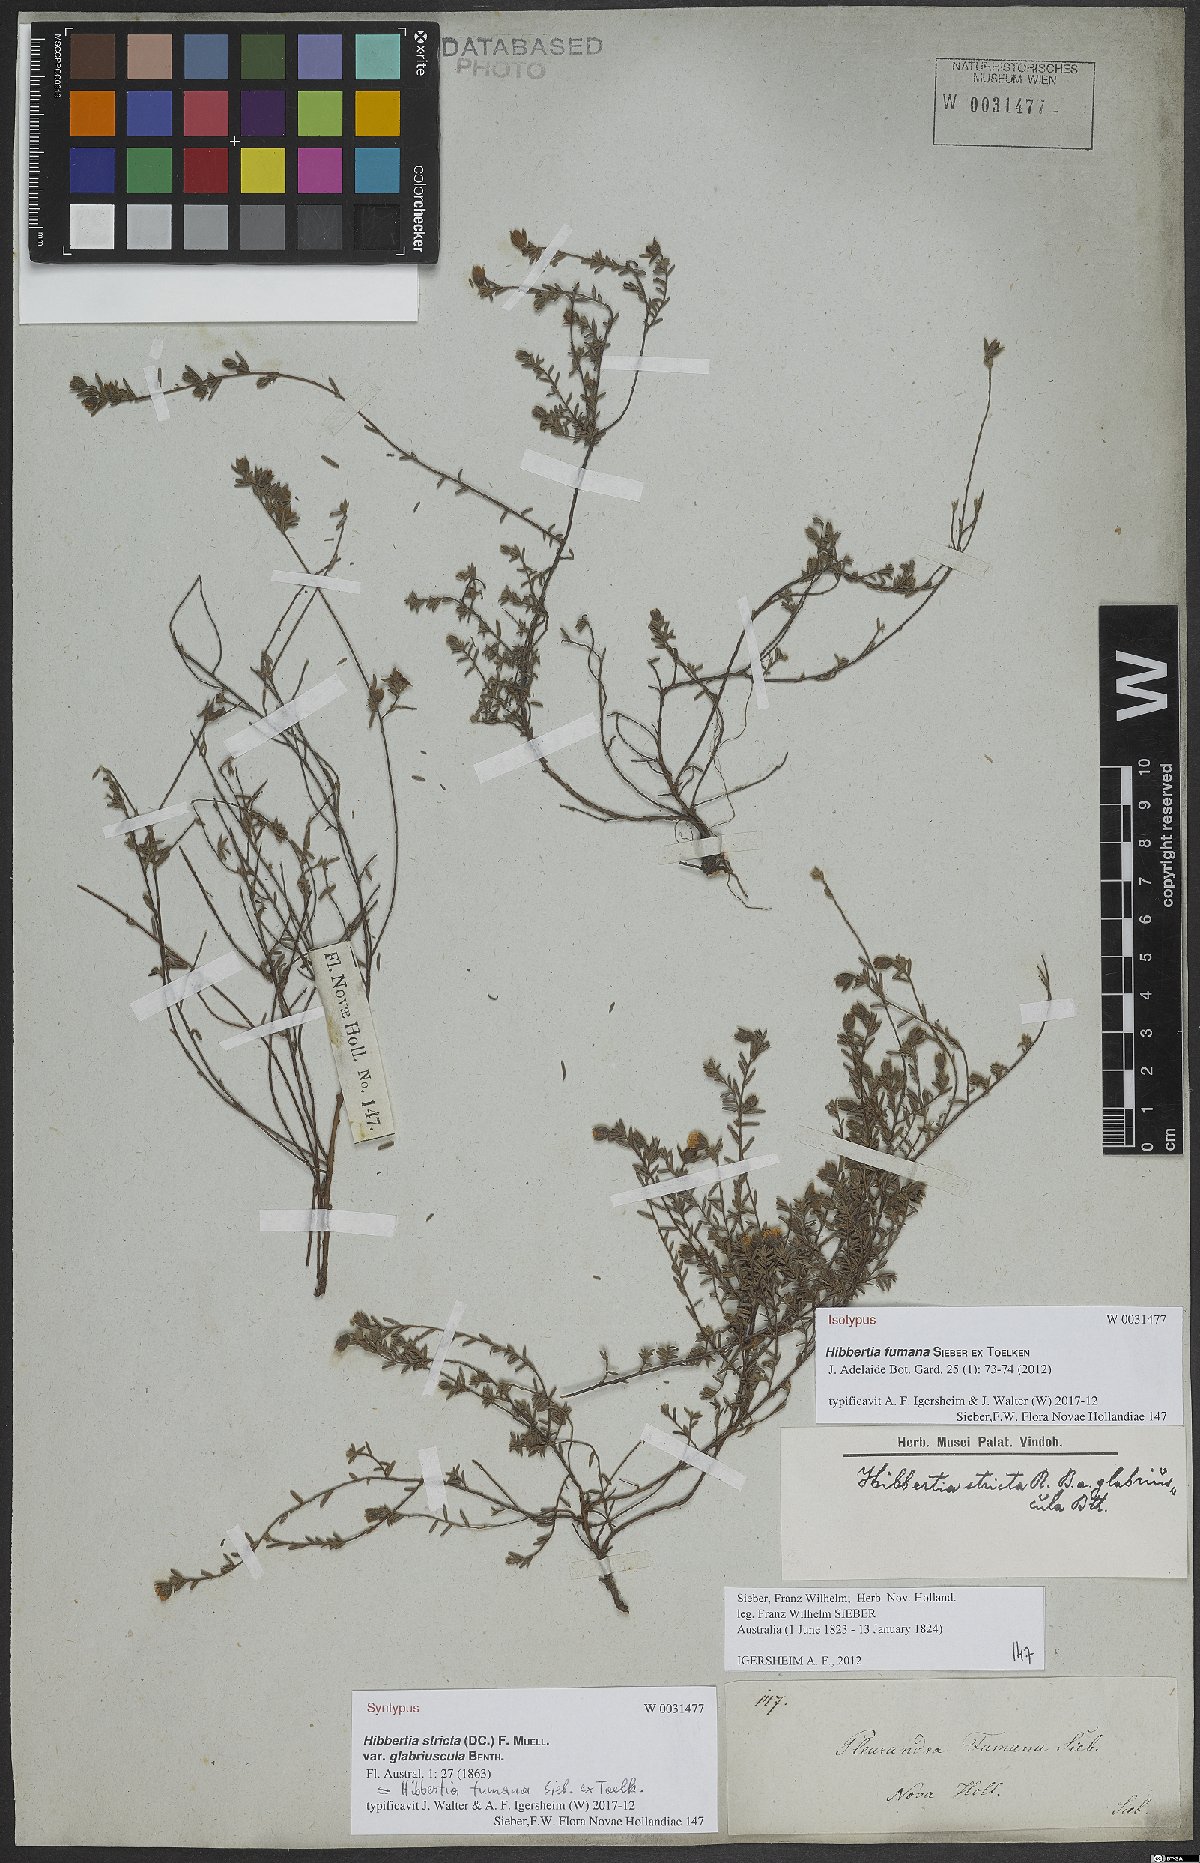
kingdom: Plantae
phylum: Tracheophyta
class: Magnoliopsida
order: Dilleniales
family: Dilleniaceae
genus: Hibbertia
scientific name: Hibbertia fumana
